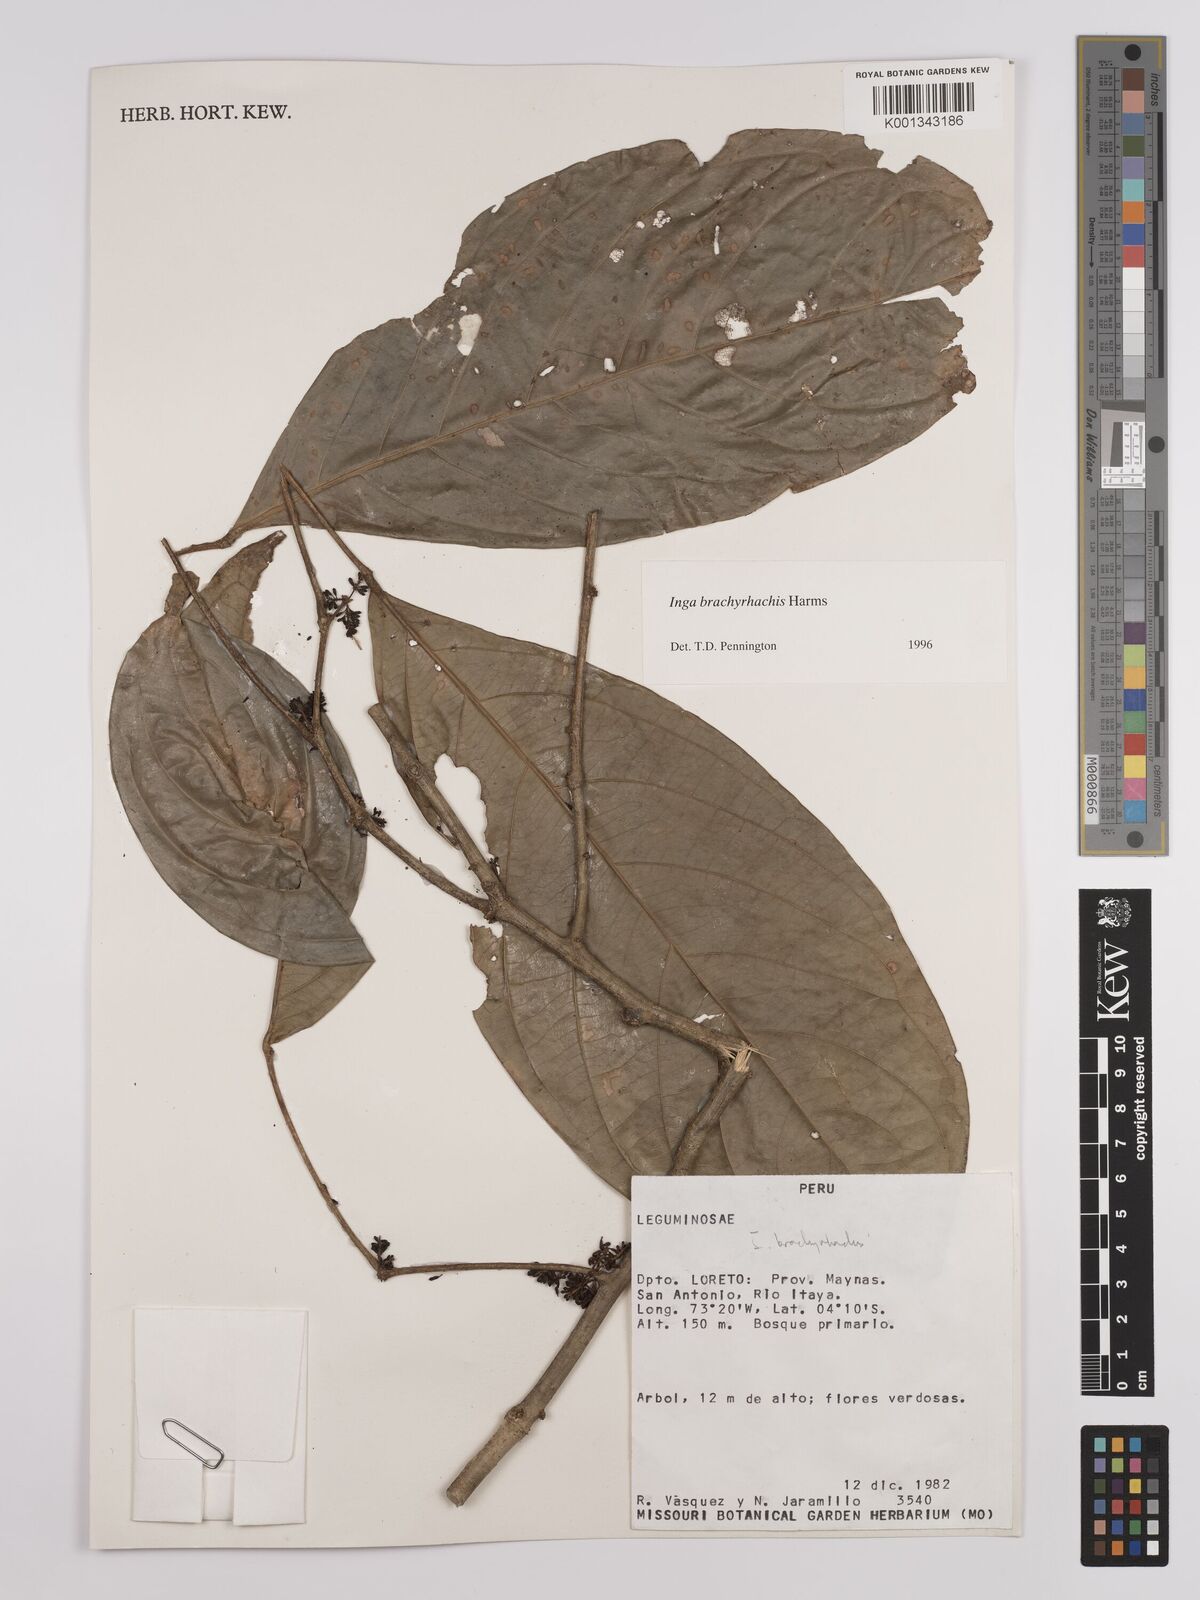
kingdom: Plantae
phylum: Tracheophyta
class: Magnoliopsida
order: Fabales
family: Fabaceae
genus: Inga
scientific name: Inga brachyrhachis
